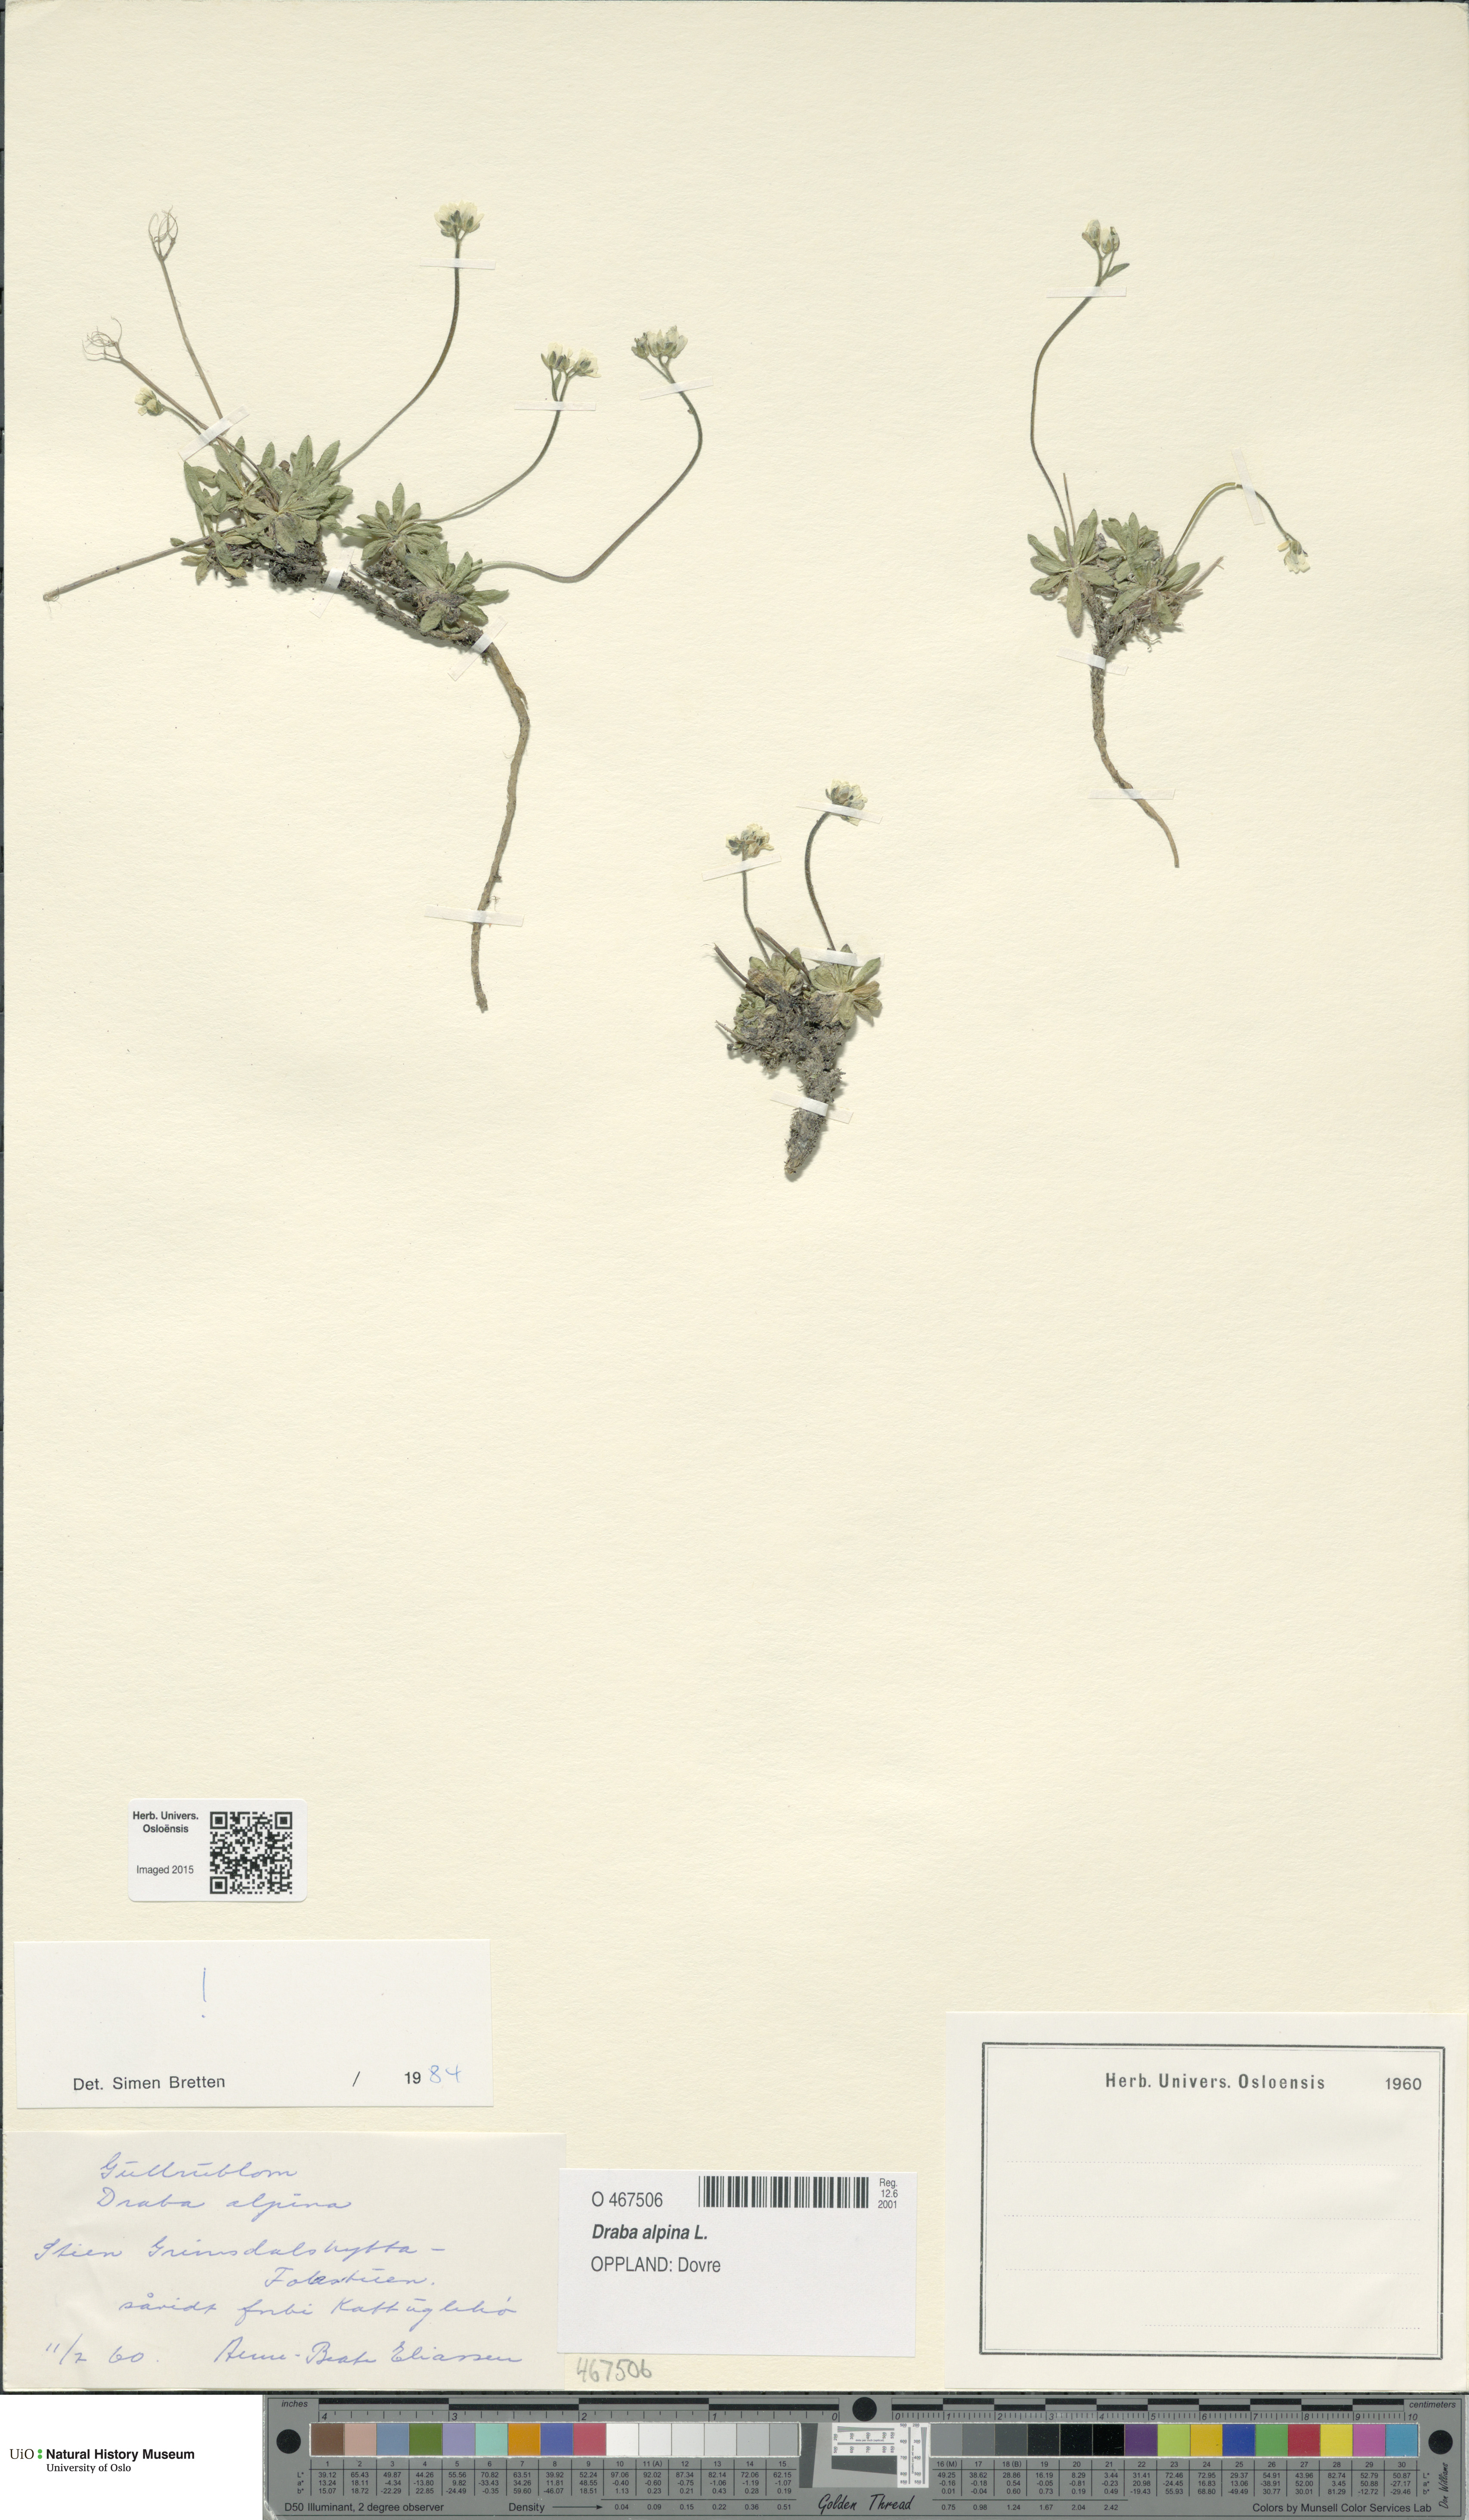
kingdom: Plantae
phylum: Tracheophyta
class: Magnoliopsida
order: Brassicales
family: Brassicaceae
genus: Draba
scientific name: Draba alpina
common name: Alpine draba
